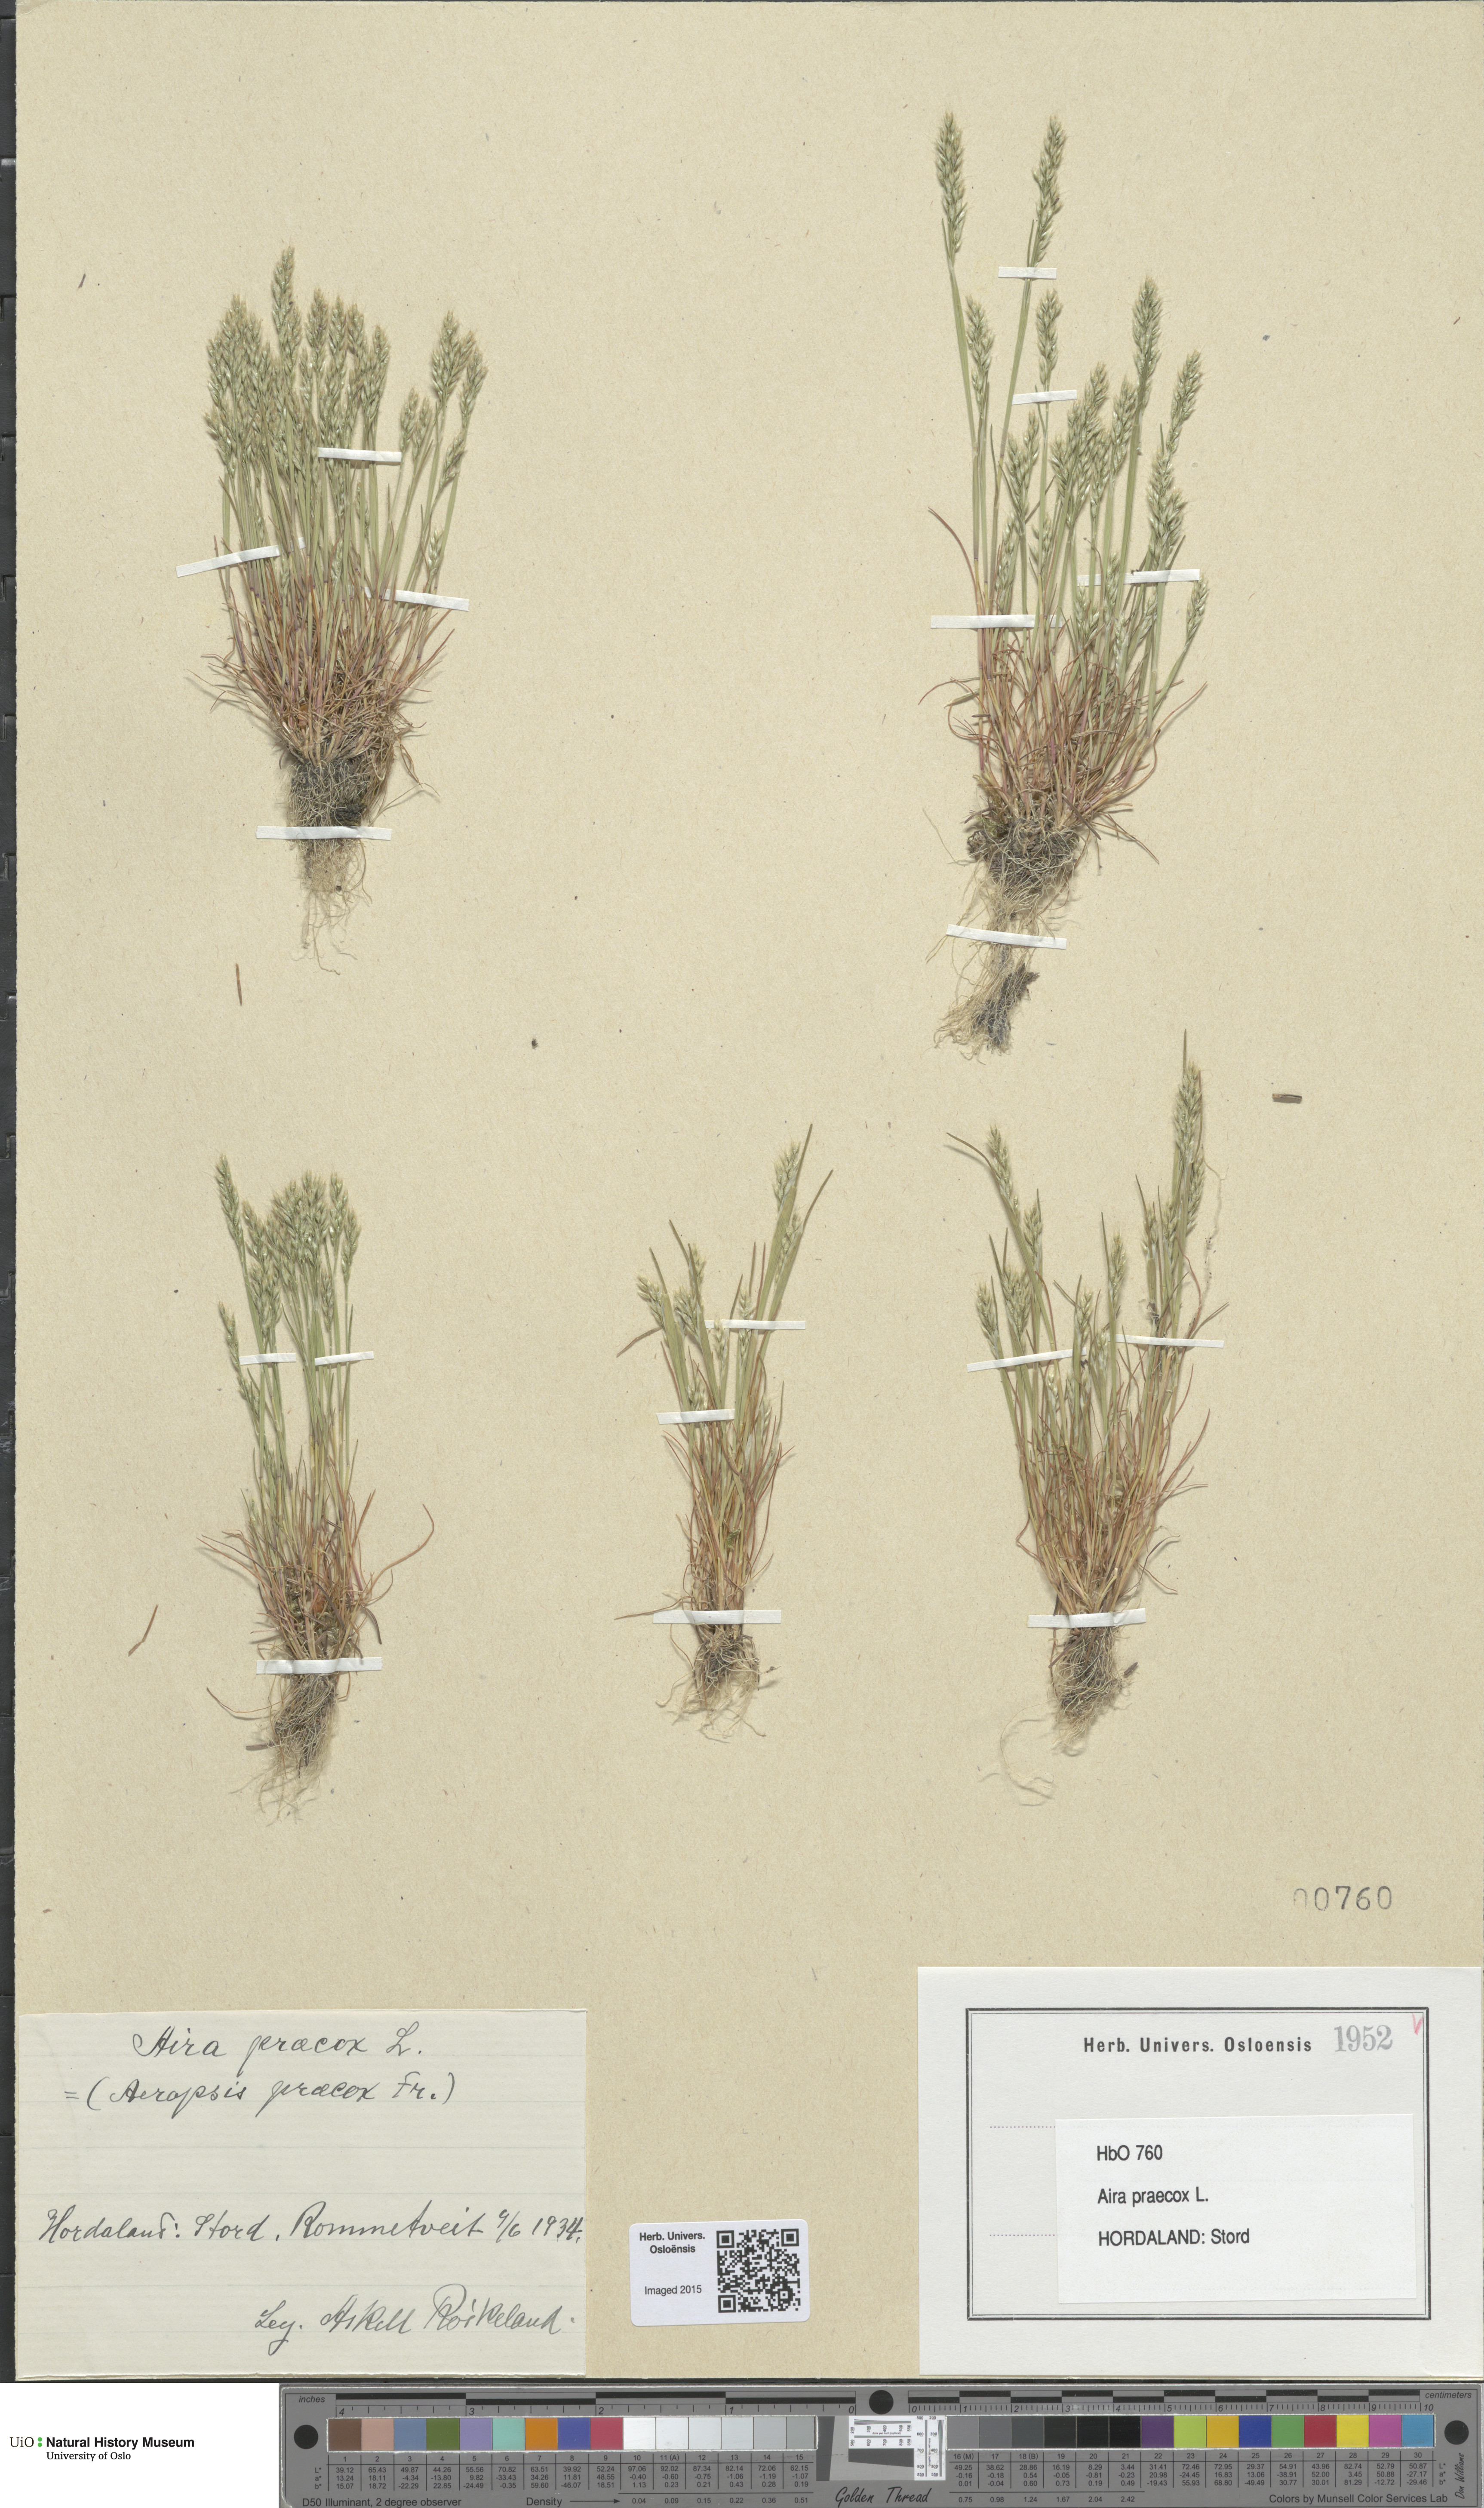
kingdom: Plantae
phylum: Tracheophyta
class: Liliopsida
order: Poales
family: Poaceae
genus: Aira
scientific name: Aira praecox
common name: Early hair-grass
